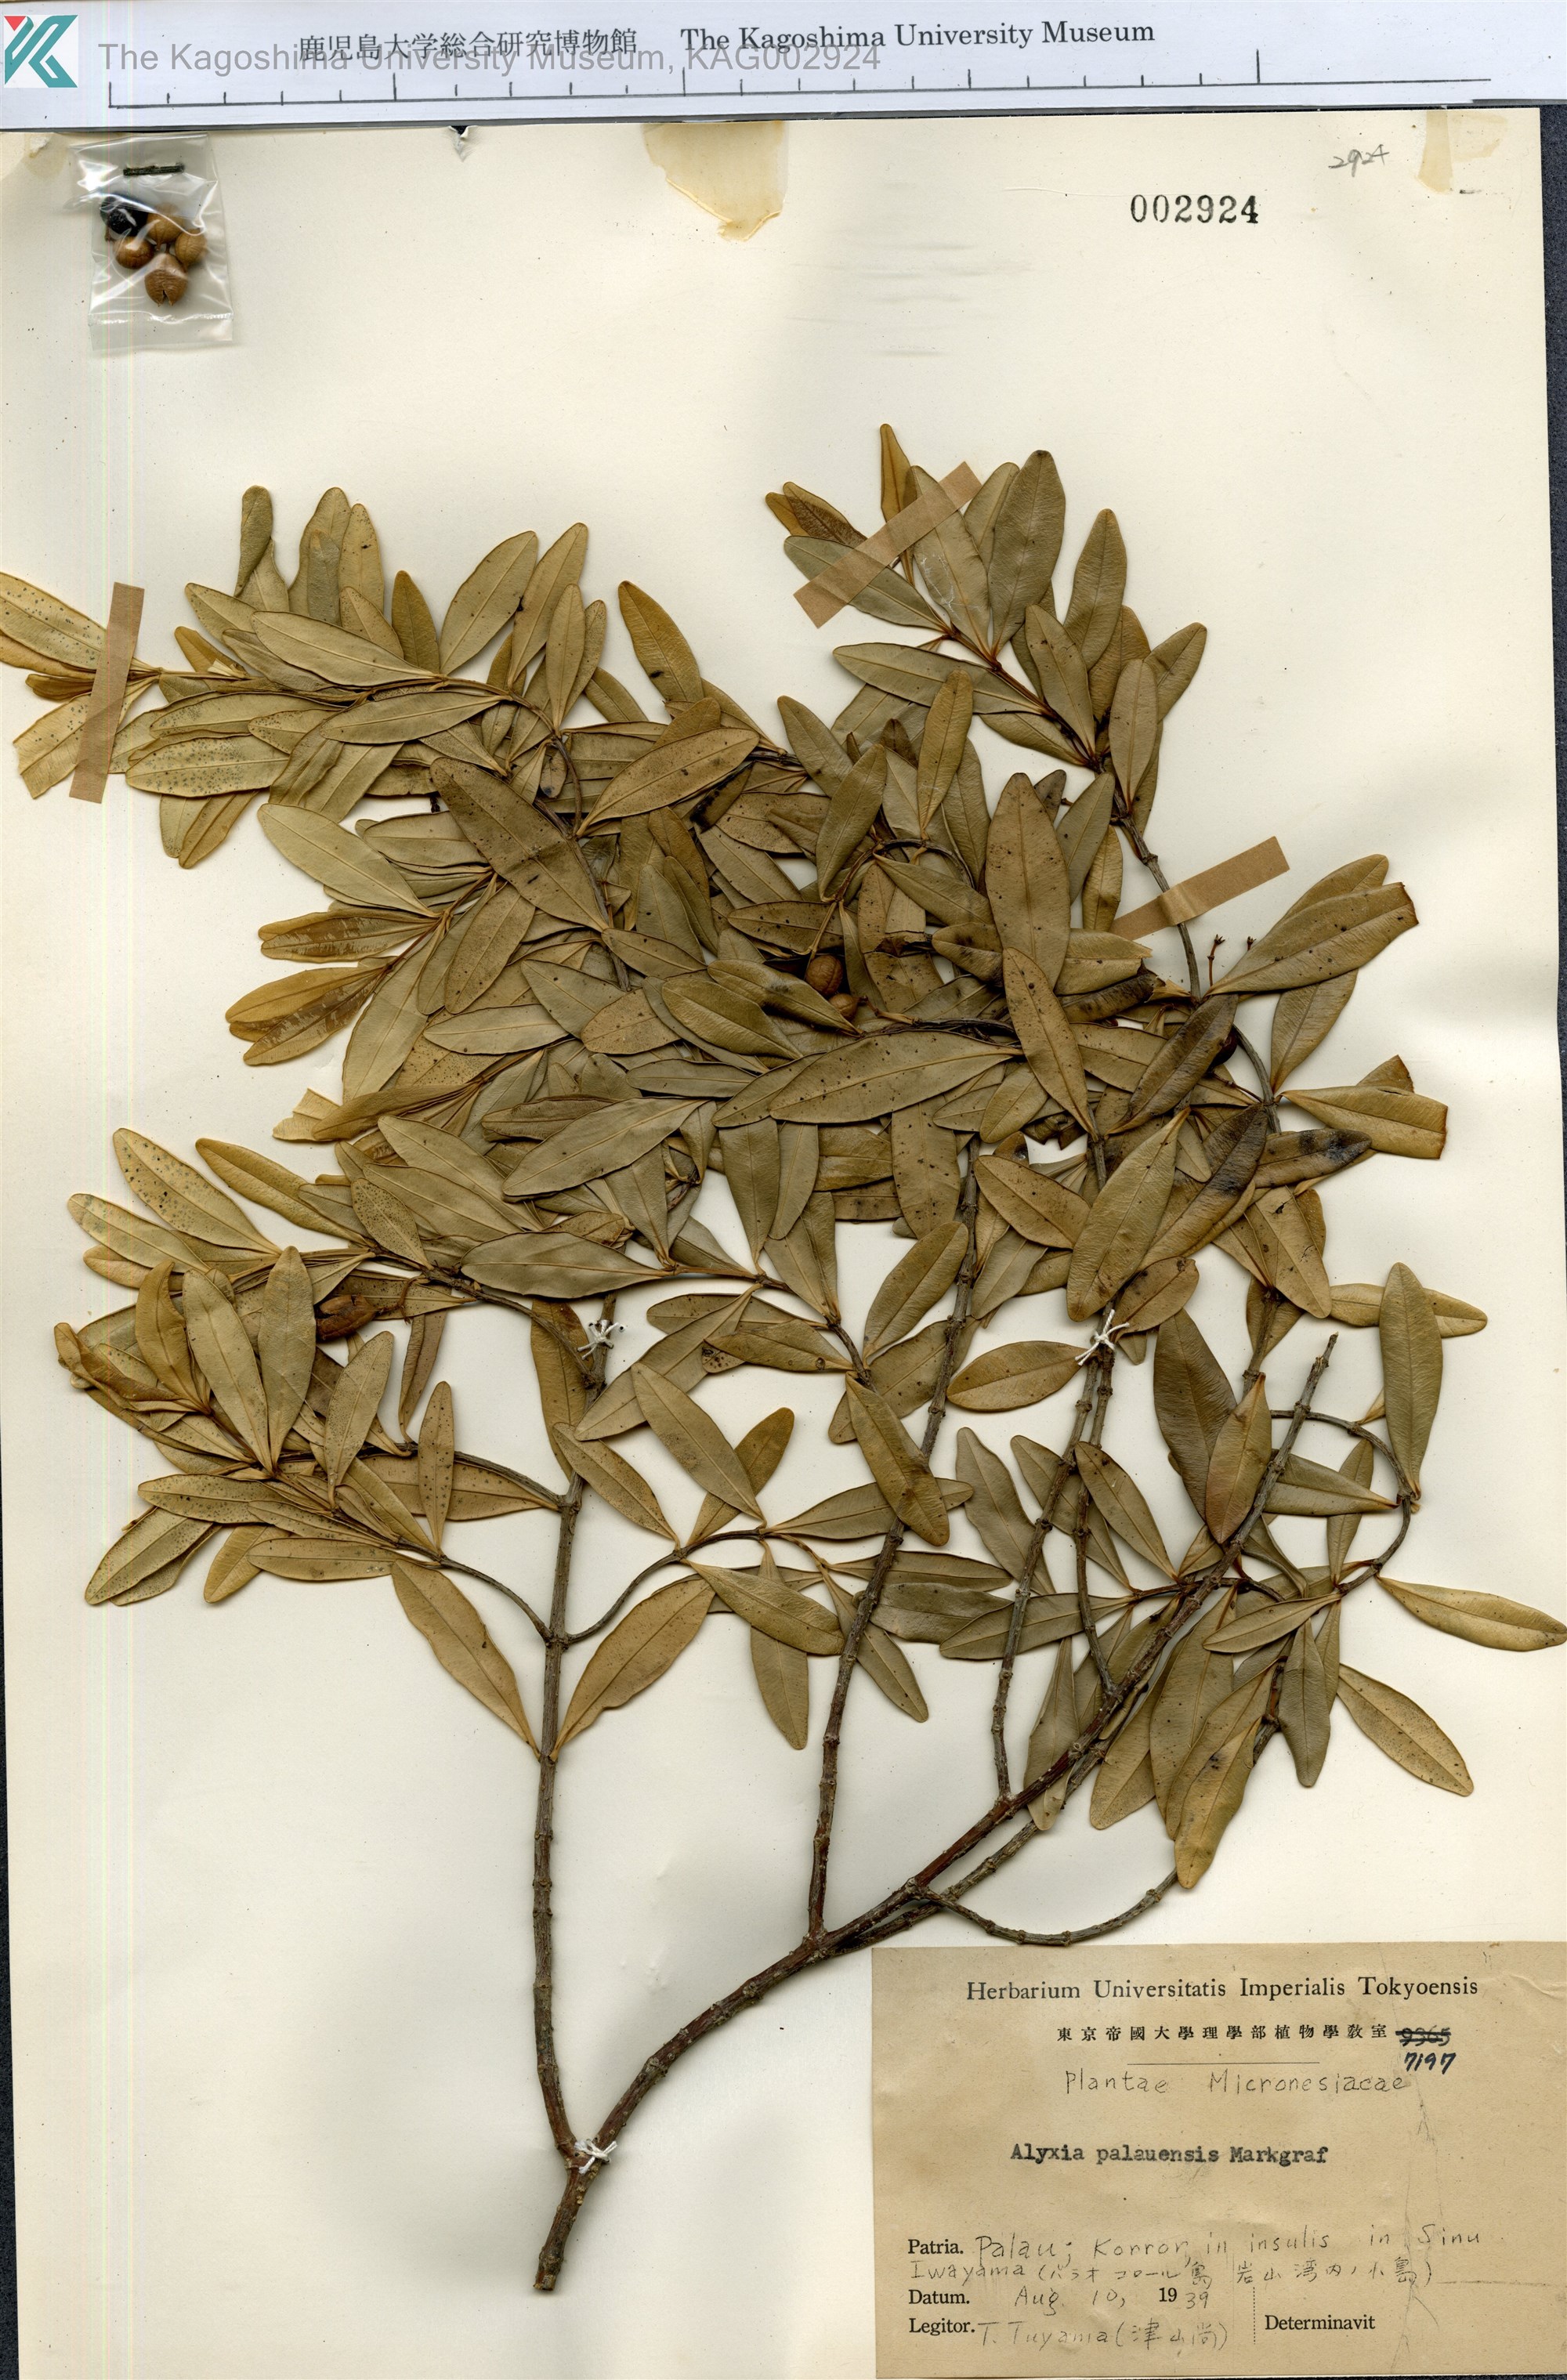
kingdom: Plantae
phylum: Tracheophyta
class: Magnoliopsida
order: Gentianales
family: Apocynaceae
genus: Alyxia
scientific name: Alyxia stellata
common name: Maile
